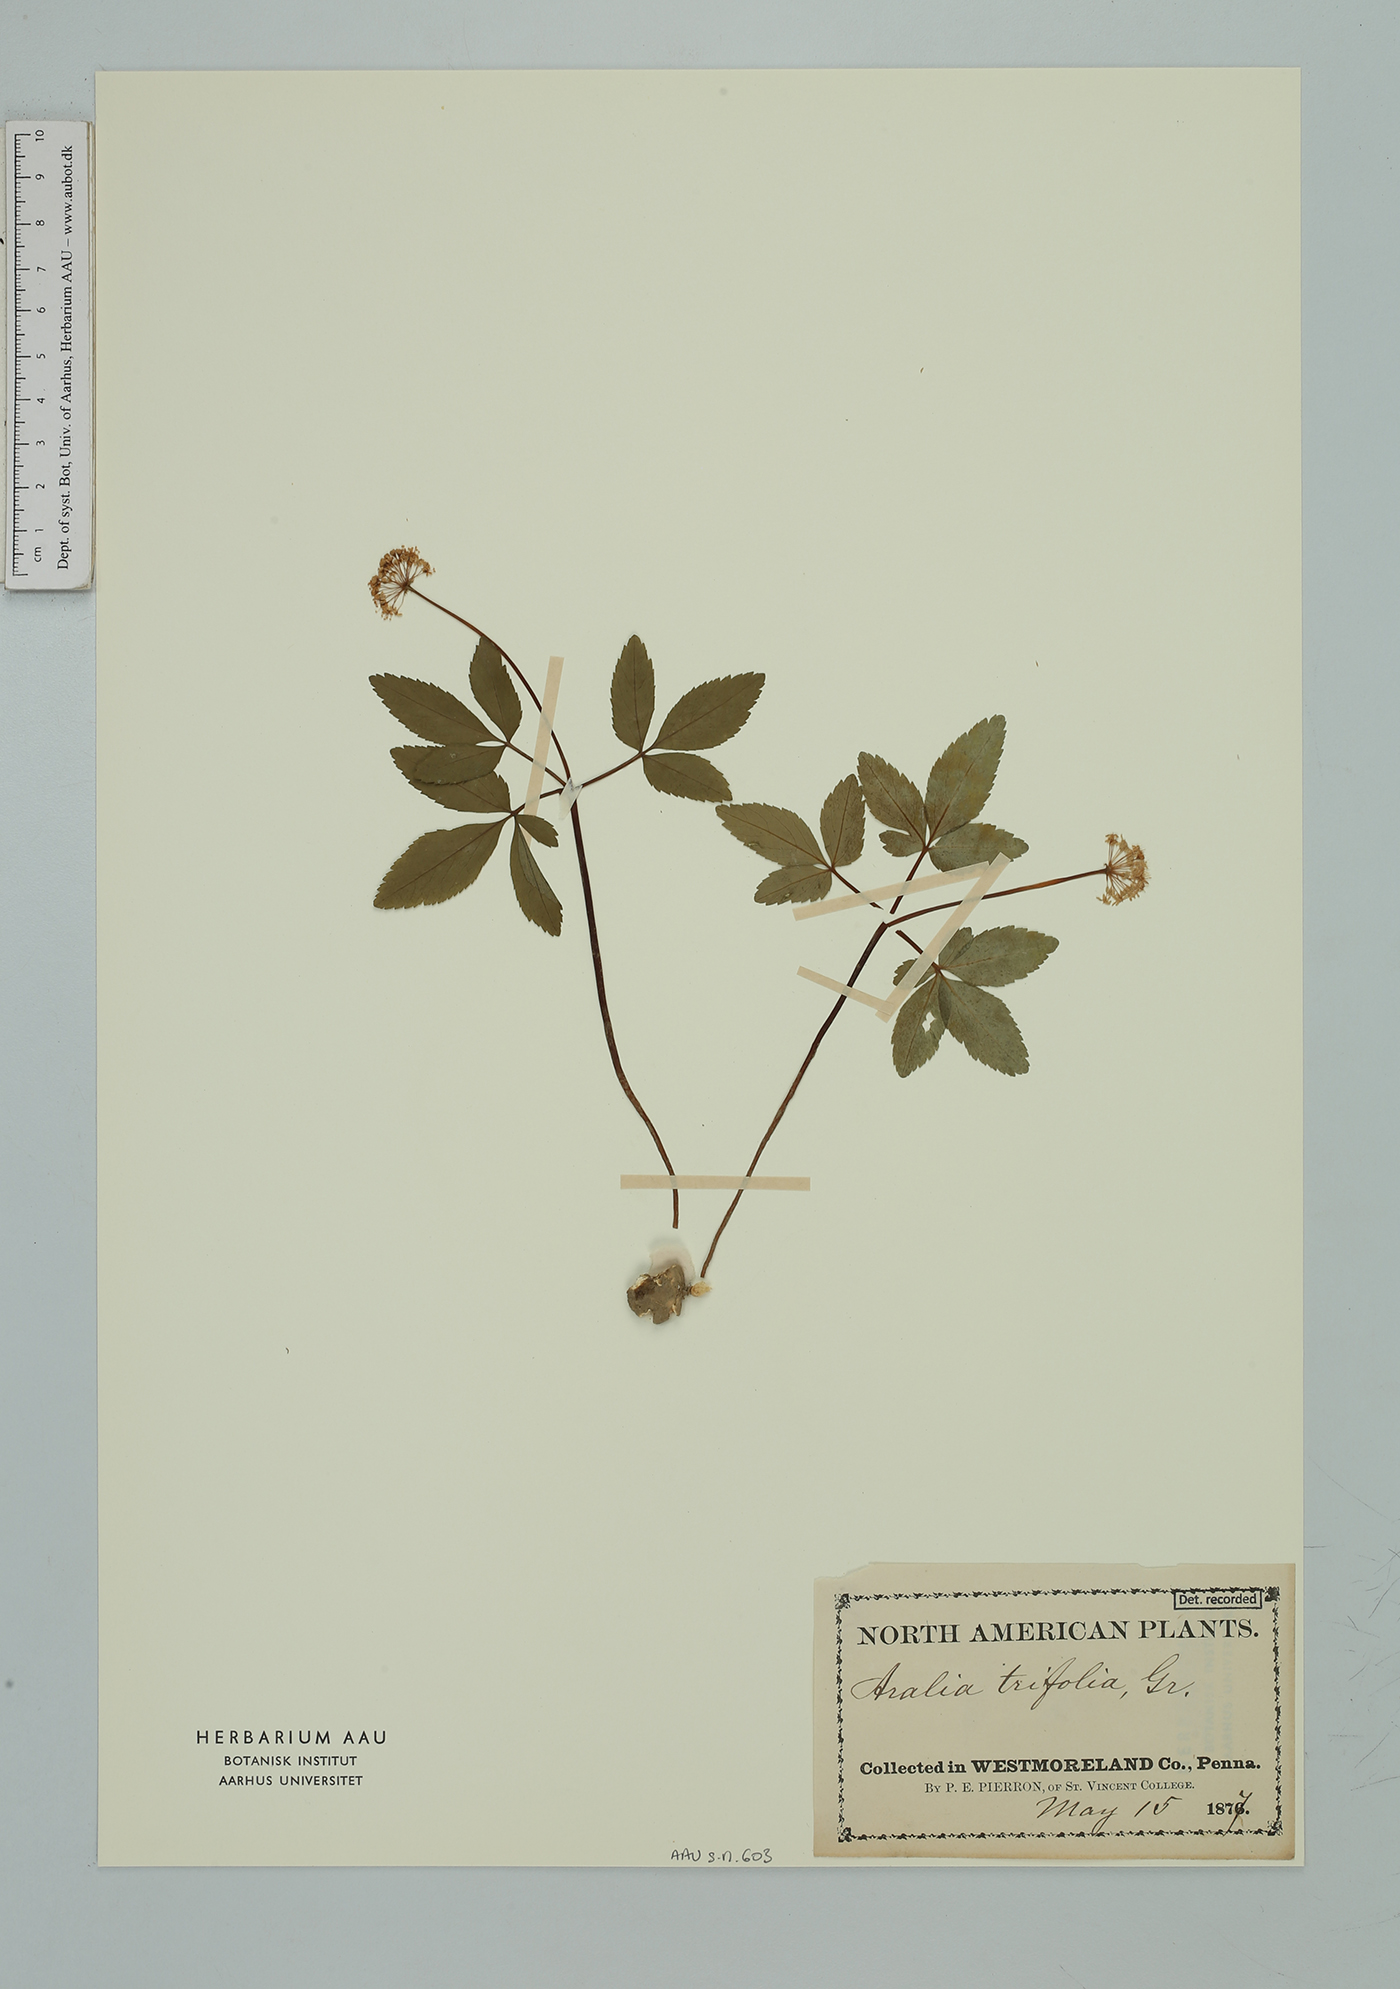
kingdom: Plantae
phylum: Tracheophyta
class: Magnoliopsida
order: Apiales
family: Araliaceae
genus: Panax
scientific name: Panax trifolius
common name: Dwarf ginseng
